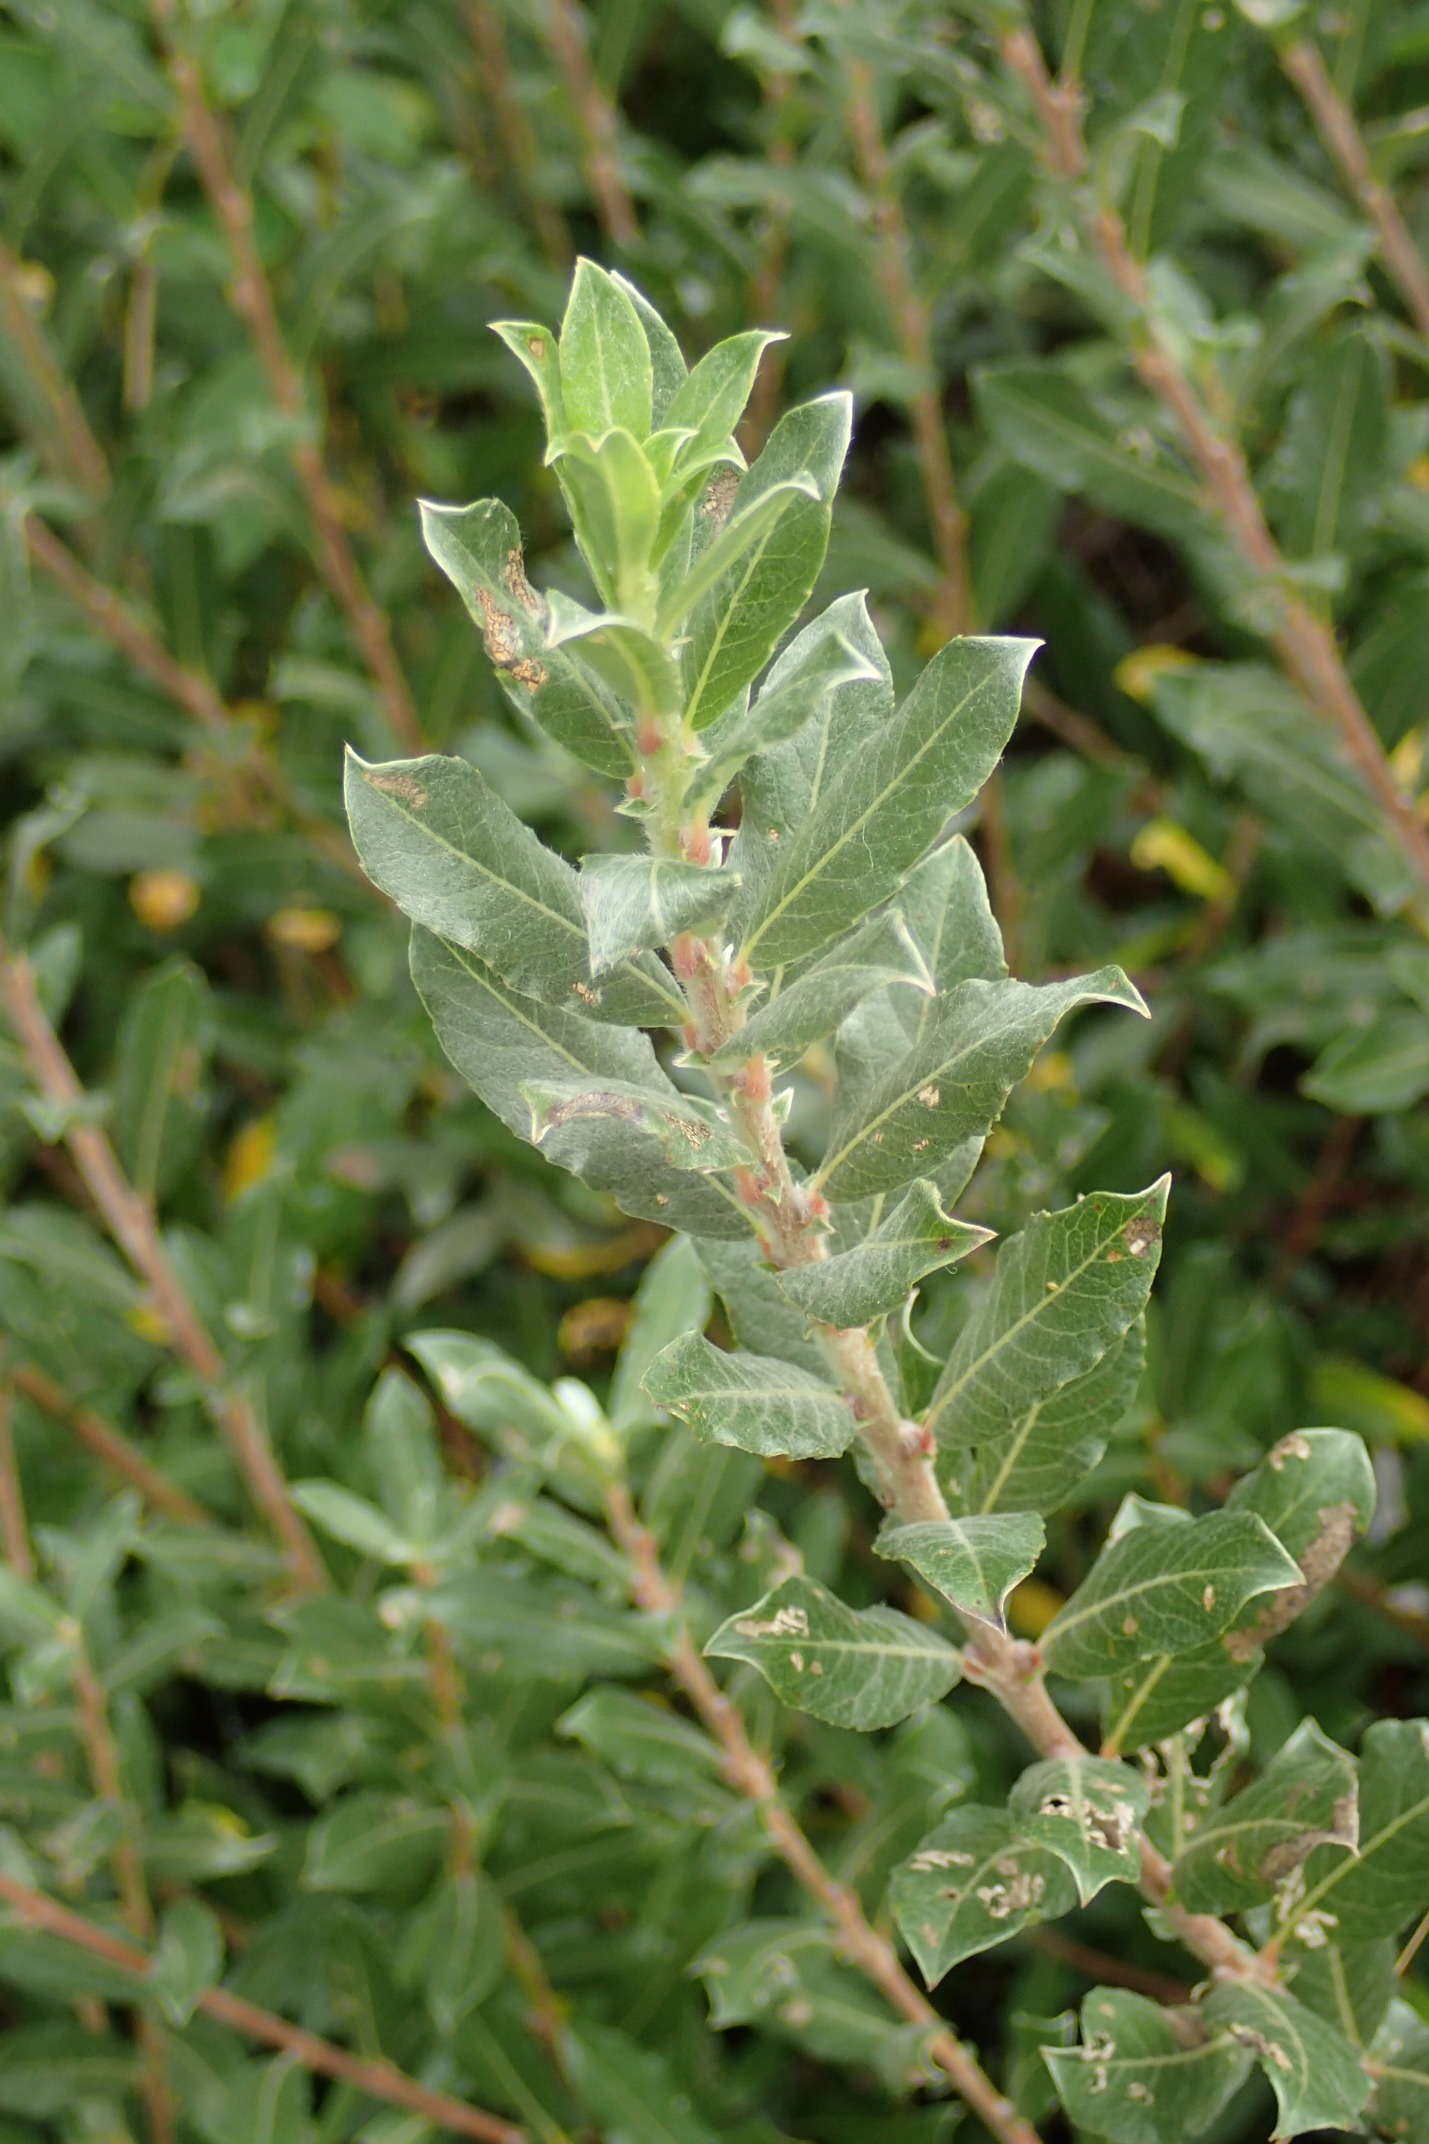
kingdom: Plantae
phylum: Tracheophyta
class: Magnoliopsida
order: Malpighiales
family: Salicaceae
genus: Salix
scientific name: Salix repens
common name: Krybende pil
